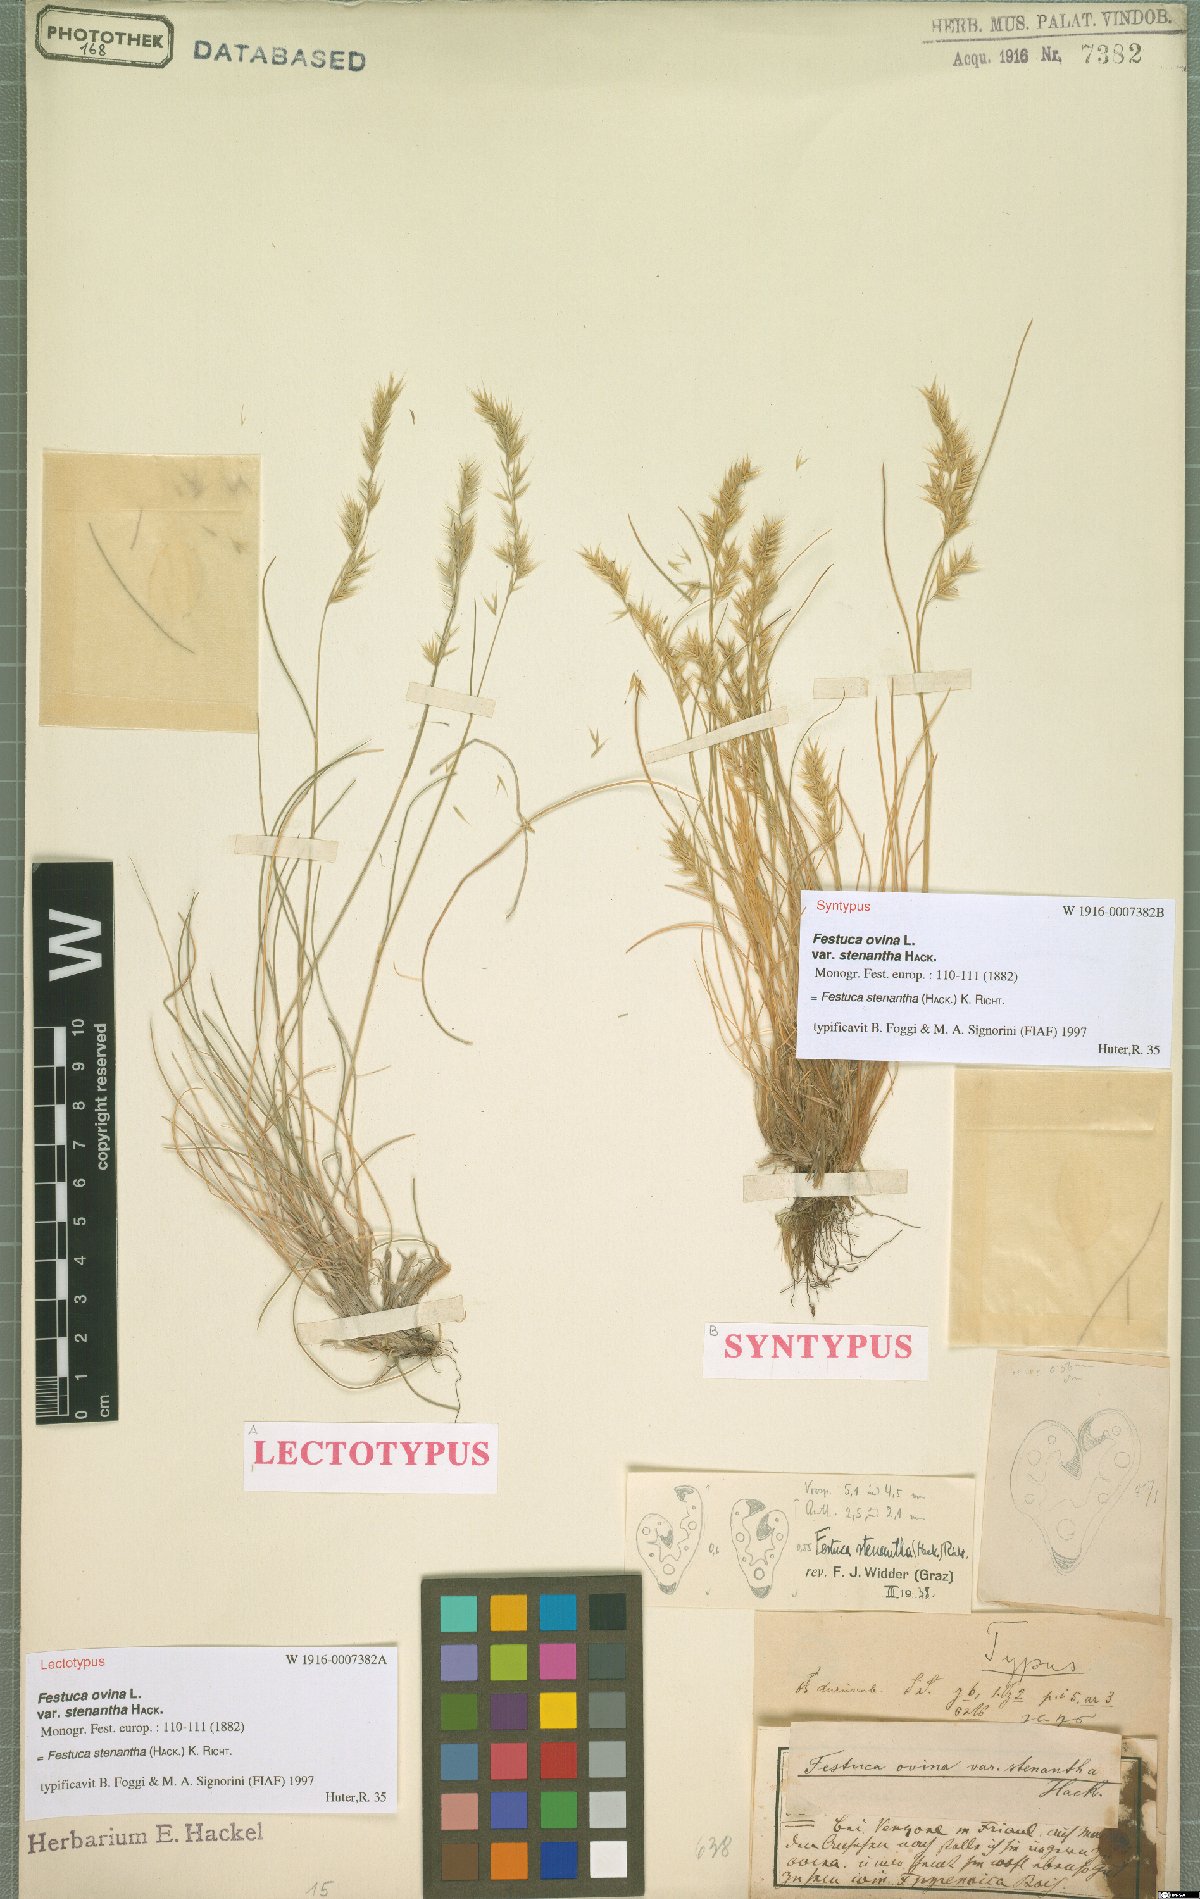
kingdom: Plantae
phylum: Tracheophyta
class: Liliopsida
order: Poales
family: Poaceae
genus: Festuca
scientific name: Festuca stenantha
